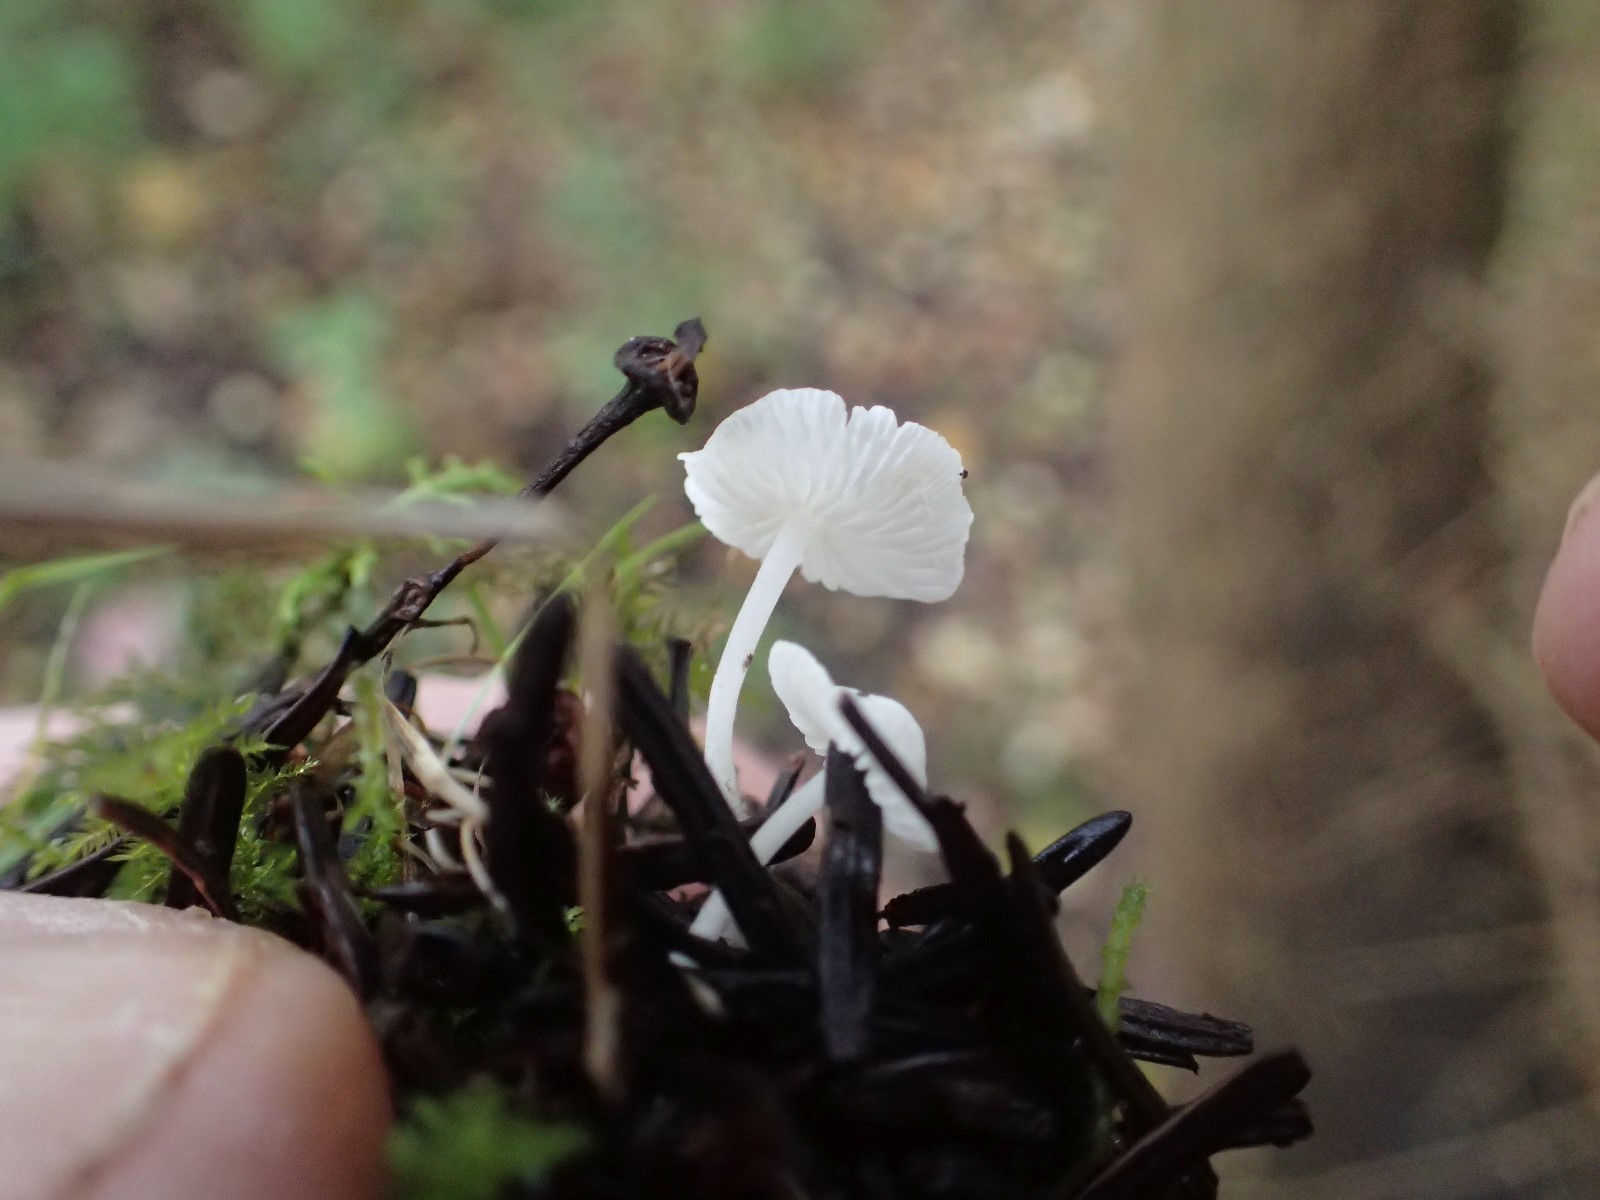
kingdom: Fungi
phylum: Basidiomycota
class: Agaricomycetes
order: Agaricales
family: Mycenaceae
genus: Hemimycena
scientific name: Hemimycena lactea
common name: mælkehvid huesvamp
